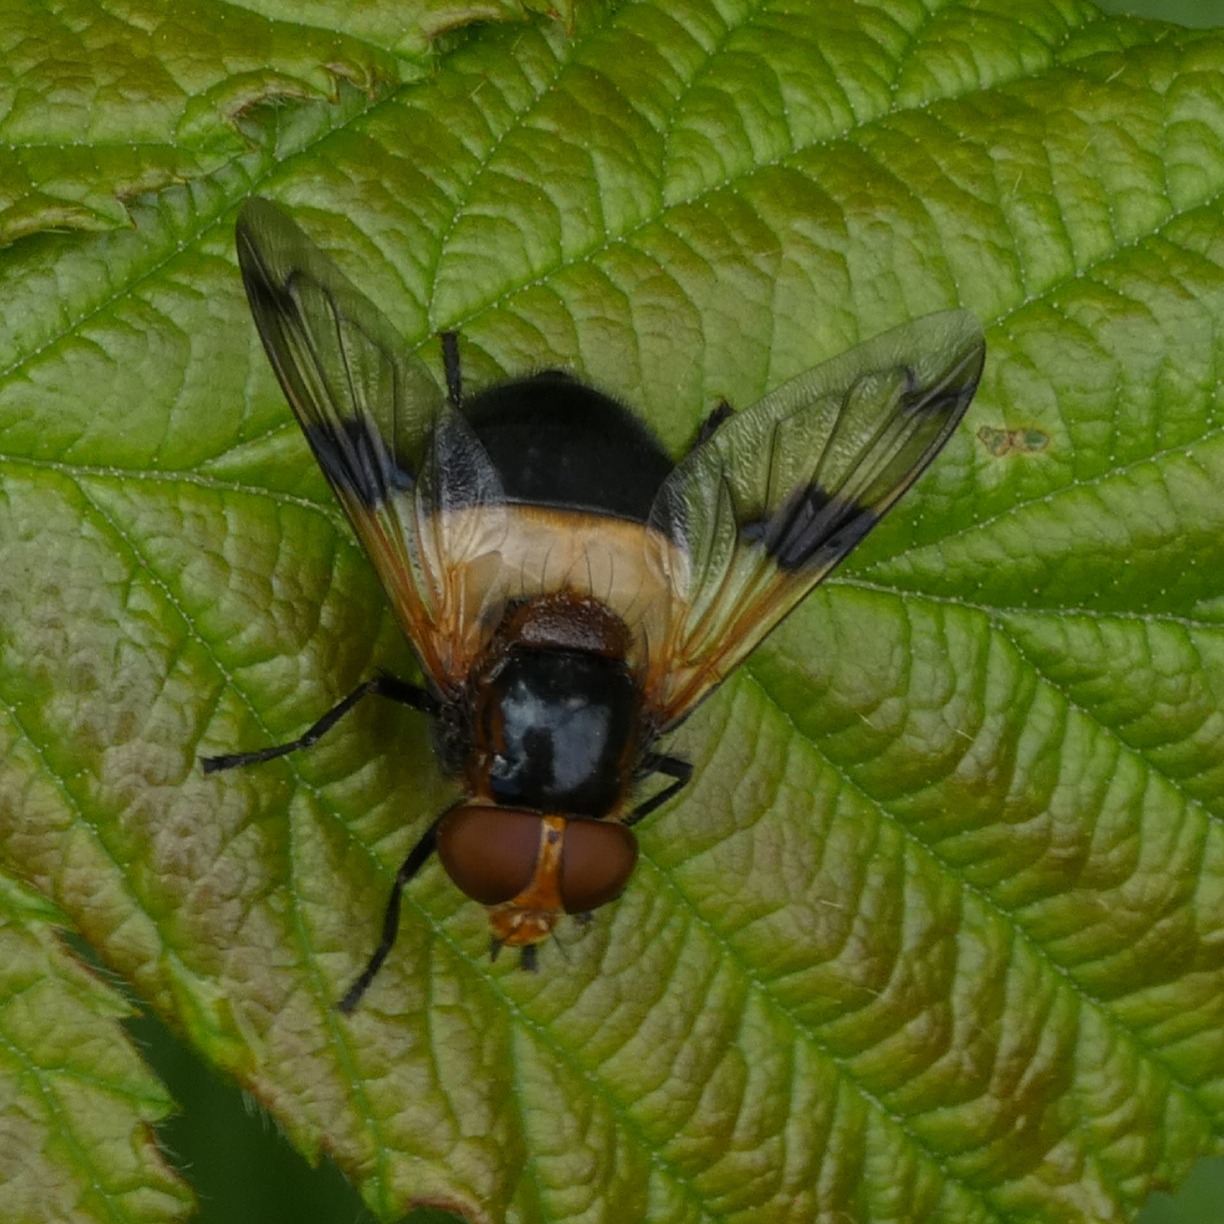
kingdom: Animalia
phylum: Arthropoda
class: Insecta
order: Diptera
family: Syrphidae
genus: Volucella
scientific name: Volucella pellucens
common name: Hvidbåndet humlesvirreflue
